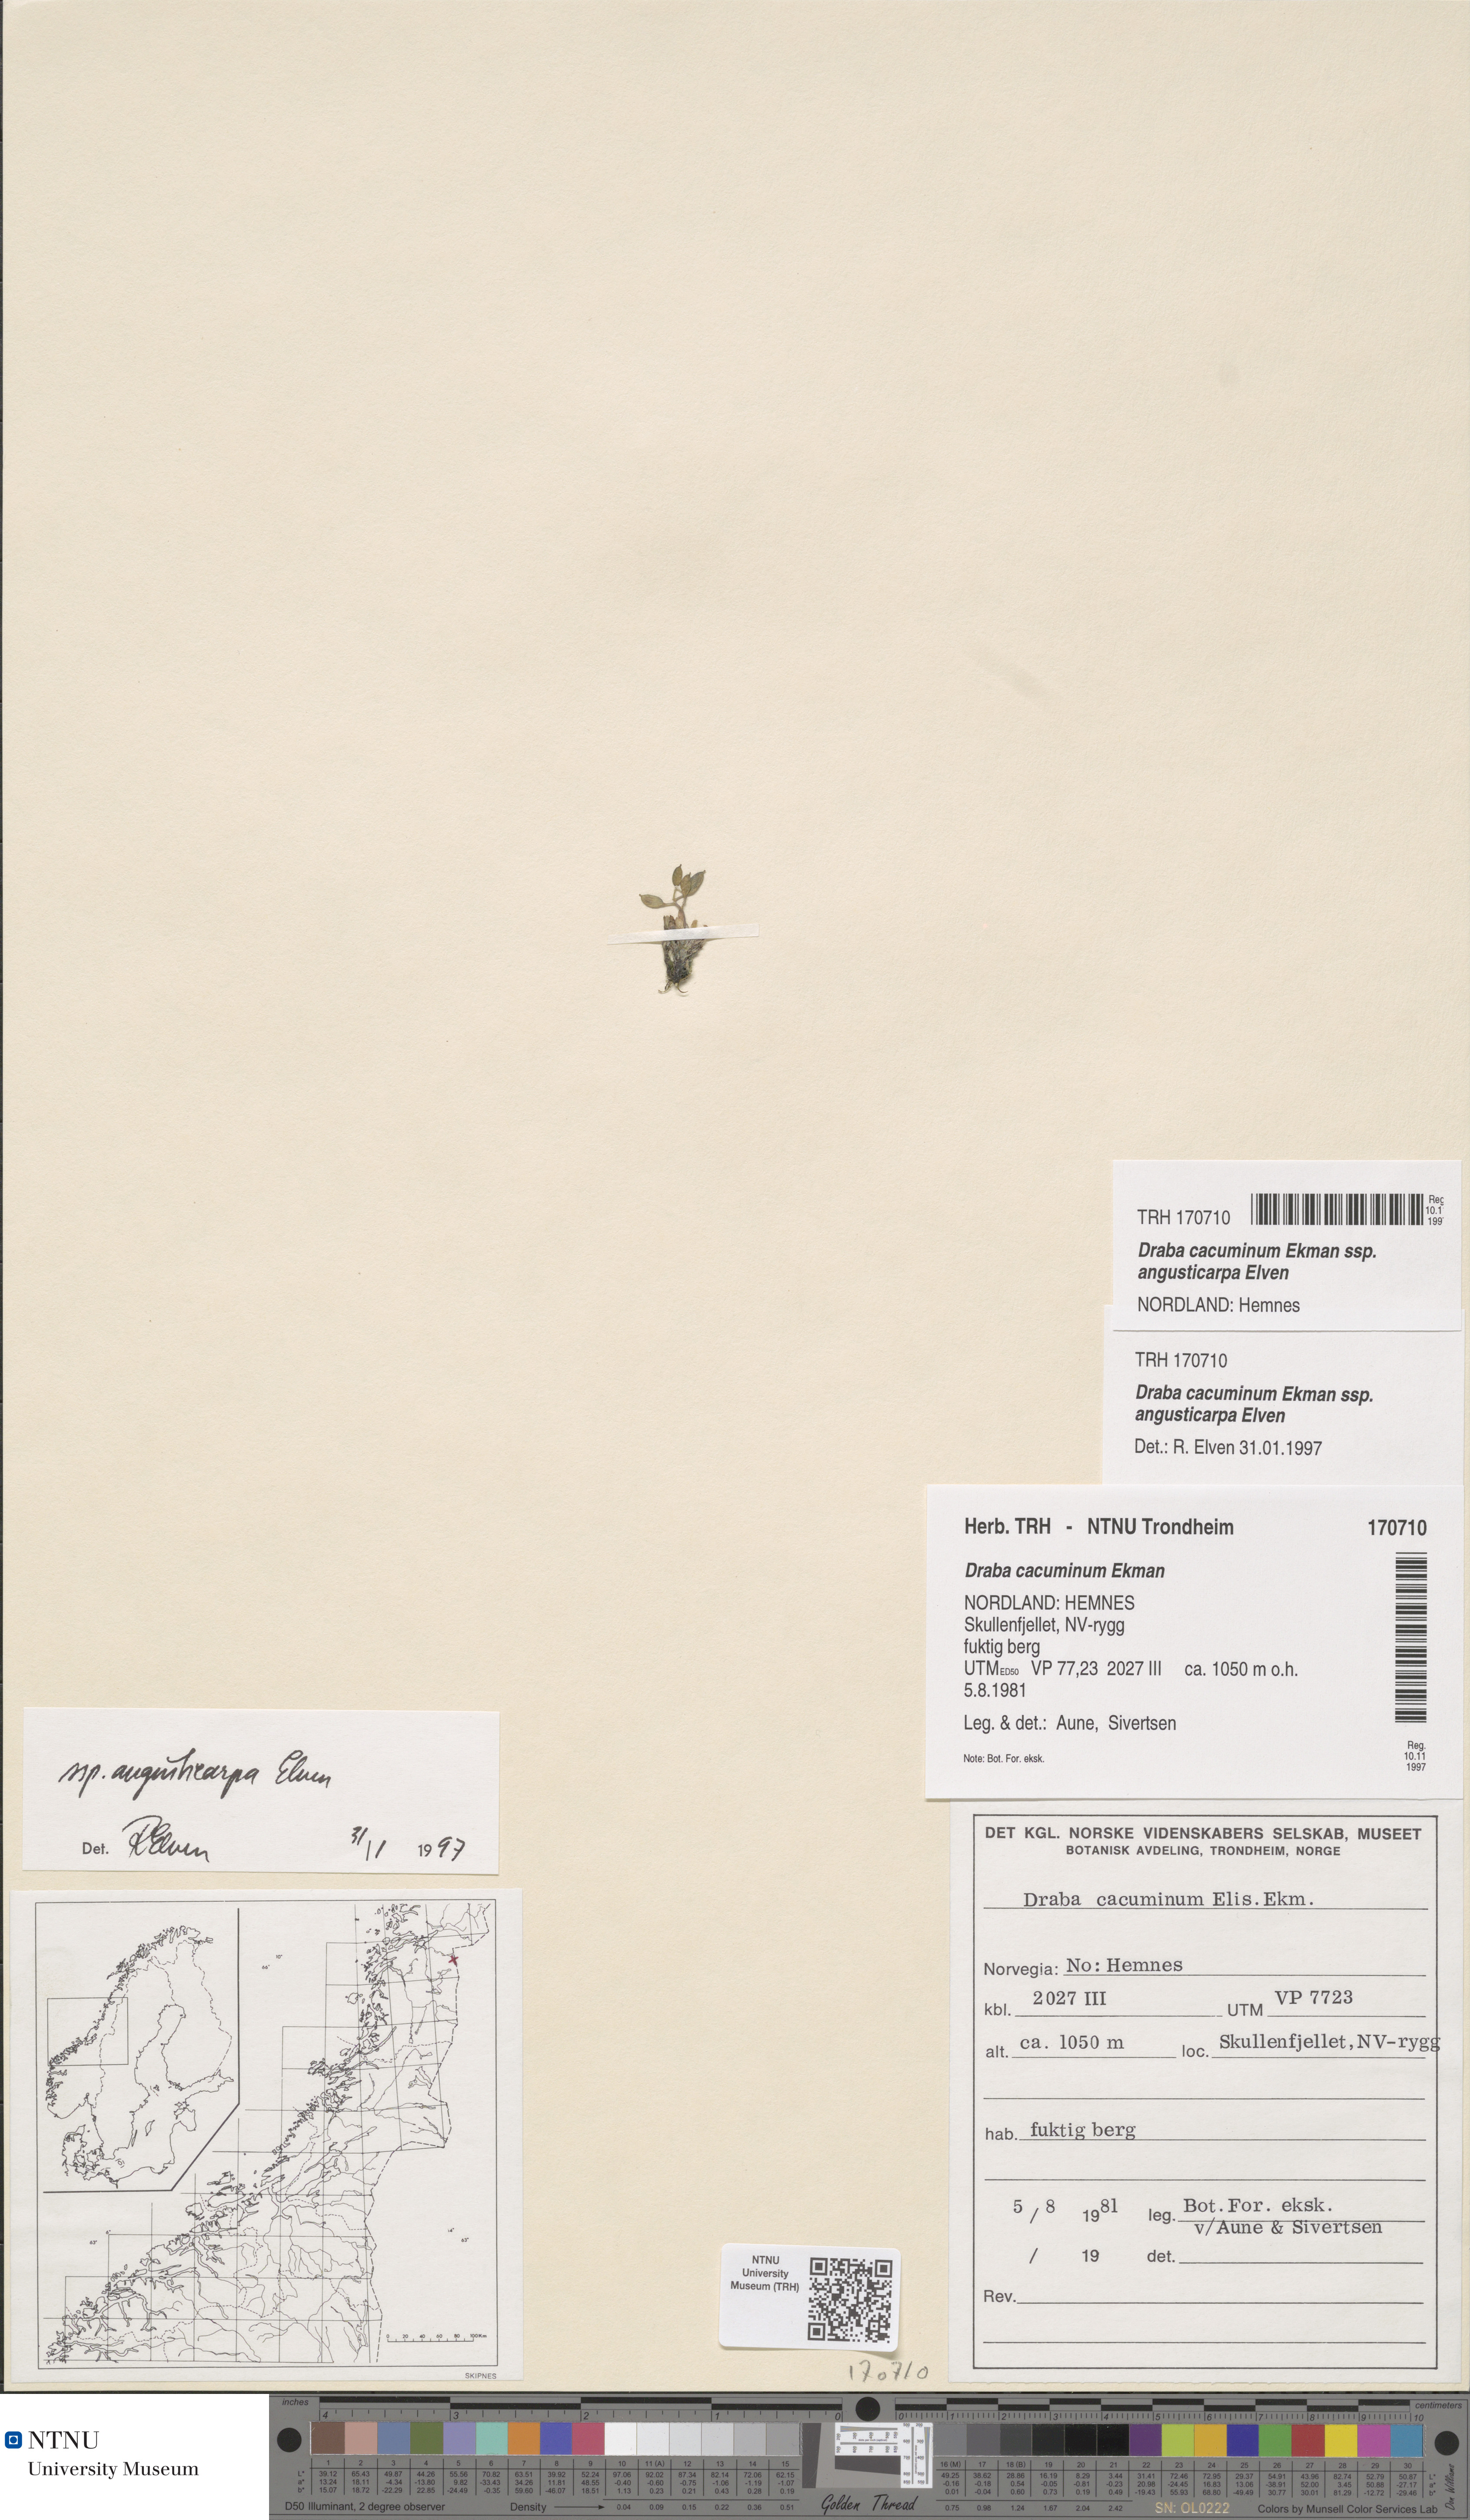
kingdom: Plantae
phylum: Tracheophyta
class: Magnoliopsida
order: Brassicales
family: Brassicaceae
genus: Draba
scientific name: Draba cacuminum
